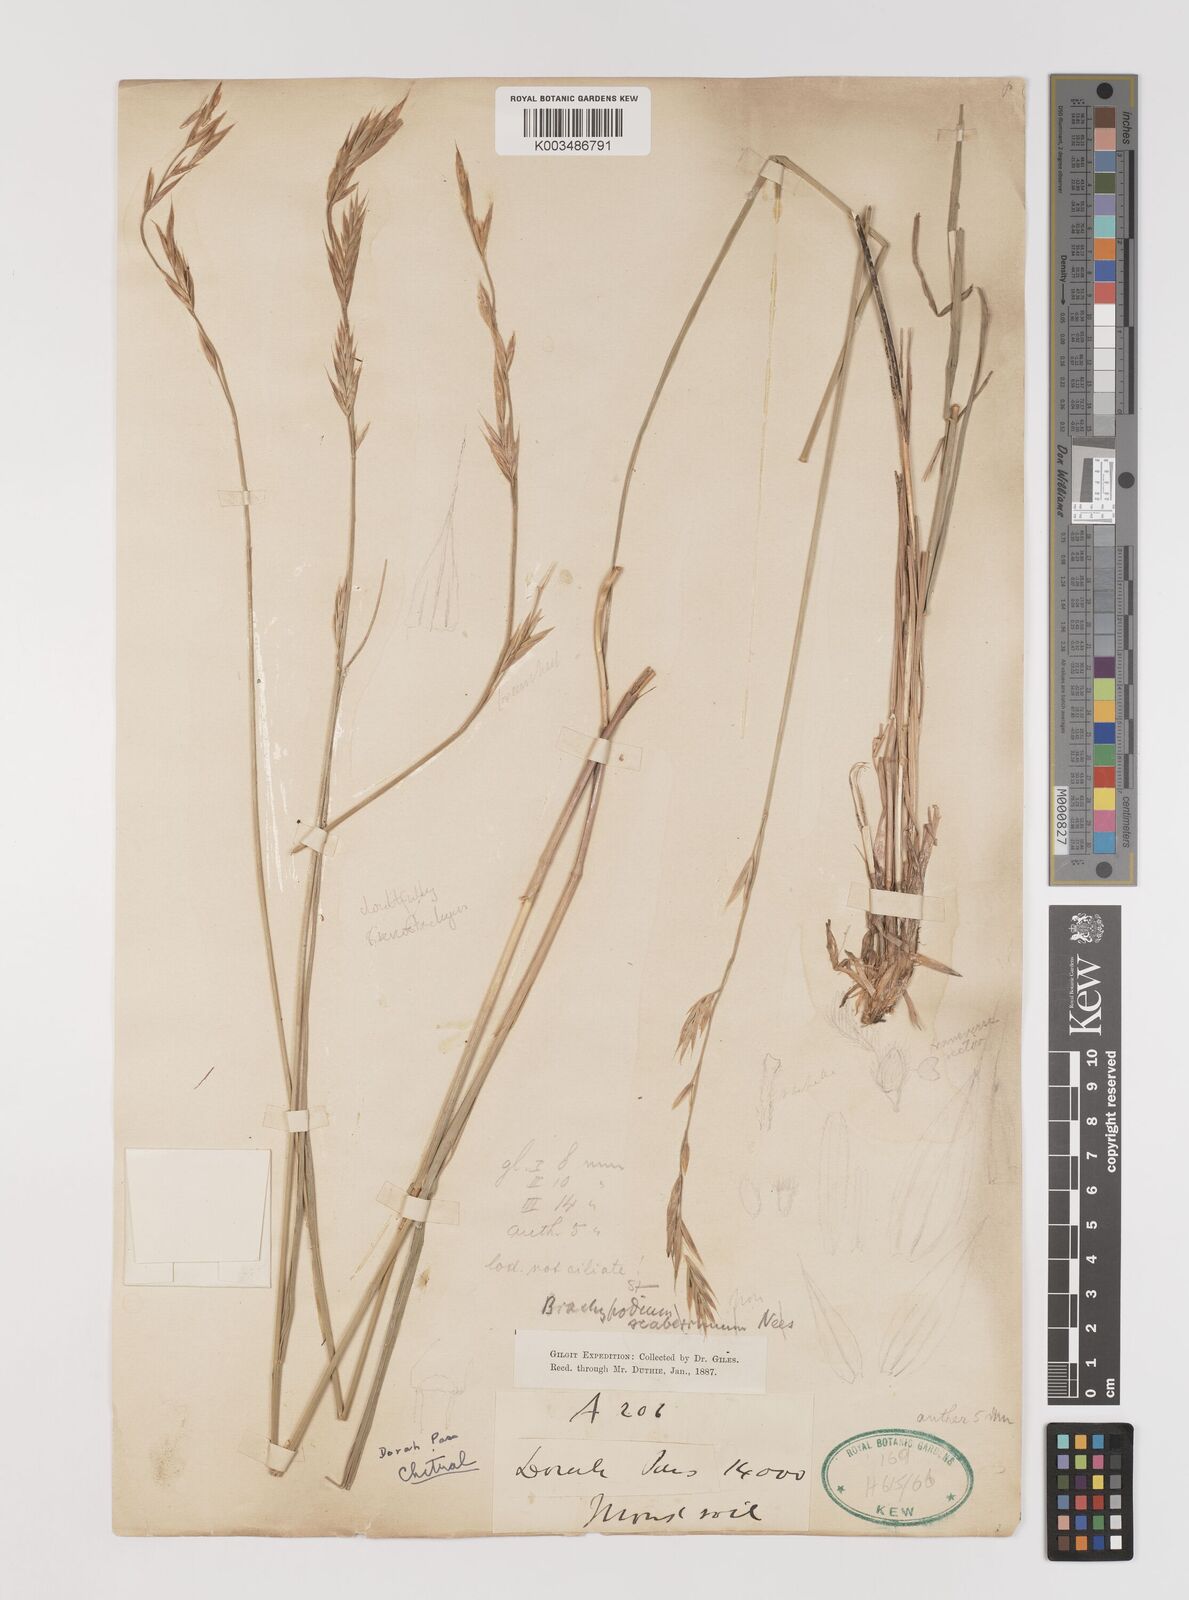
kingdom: Plantae
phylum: Tracheophyta
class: Liliopsida
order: Poales
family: Poaceae
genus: Bromus
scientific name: Bromus stenostachyus
